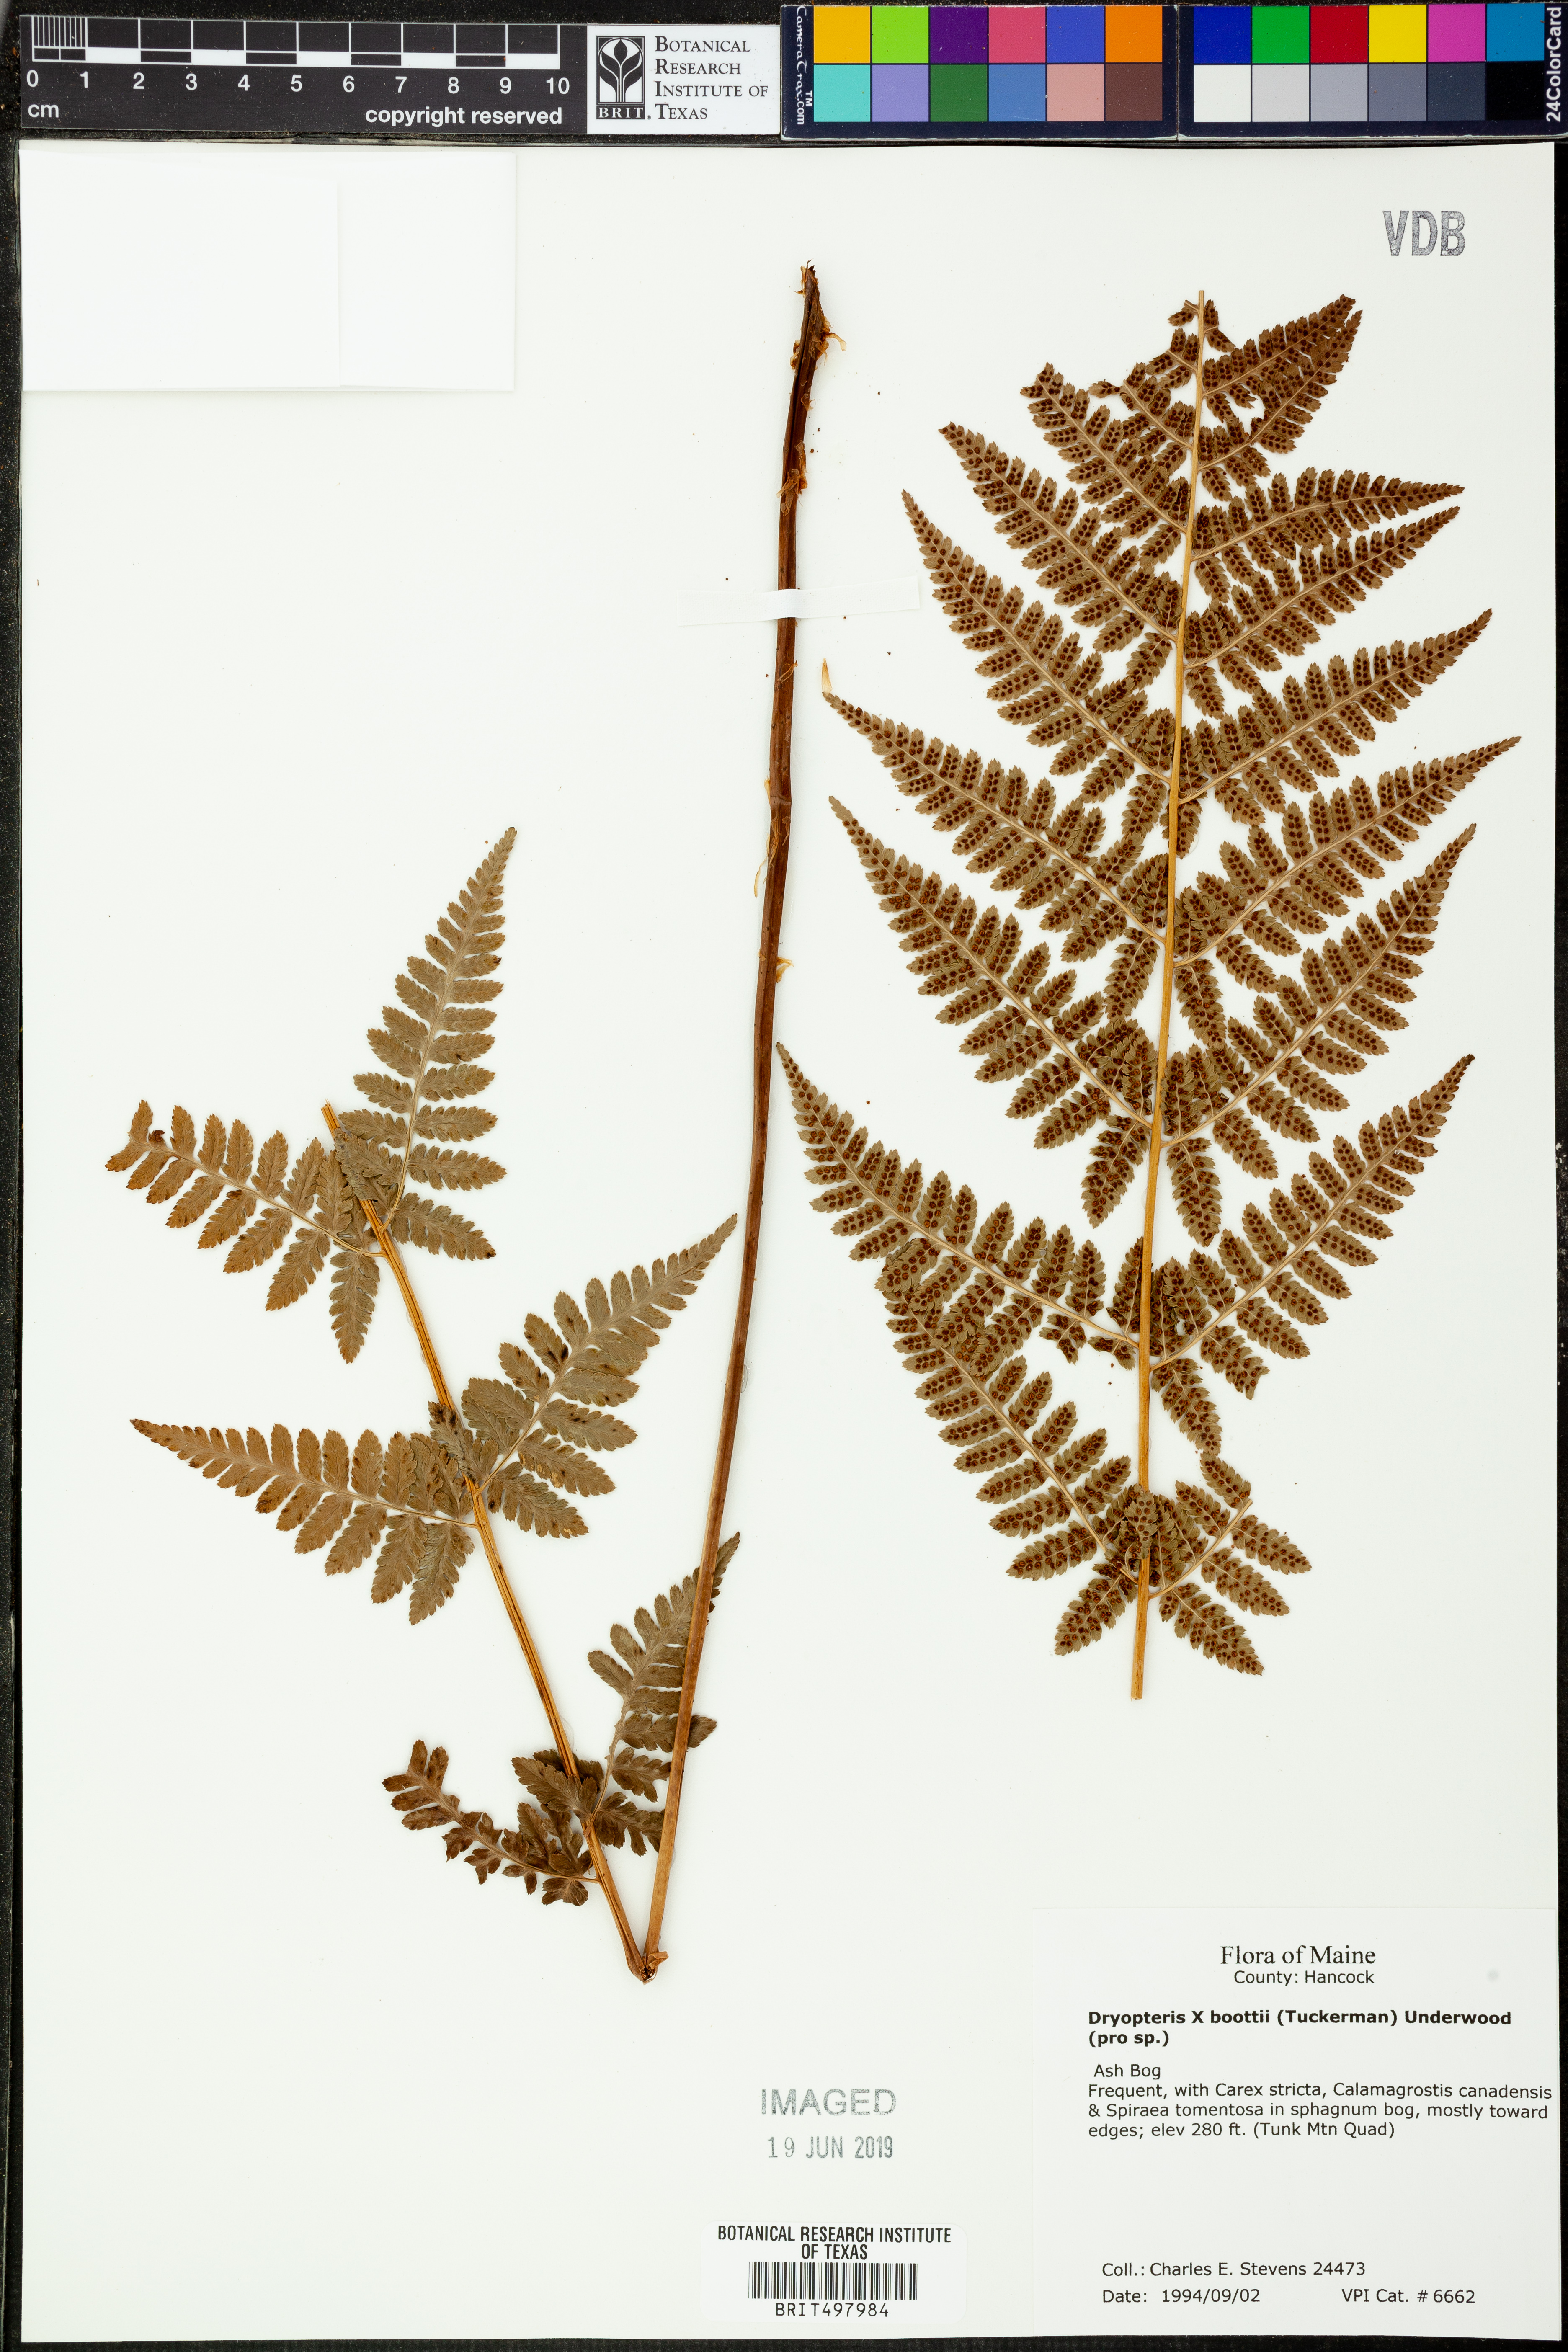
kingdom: Plantae
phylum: Tracheophyta
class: Polypodiopsida
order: Polypodiales
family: Dryopteridaceae
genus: Dryopteris
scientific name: Dryopteris
